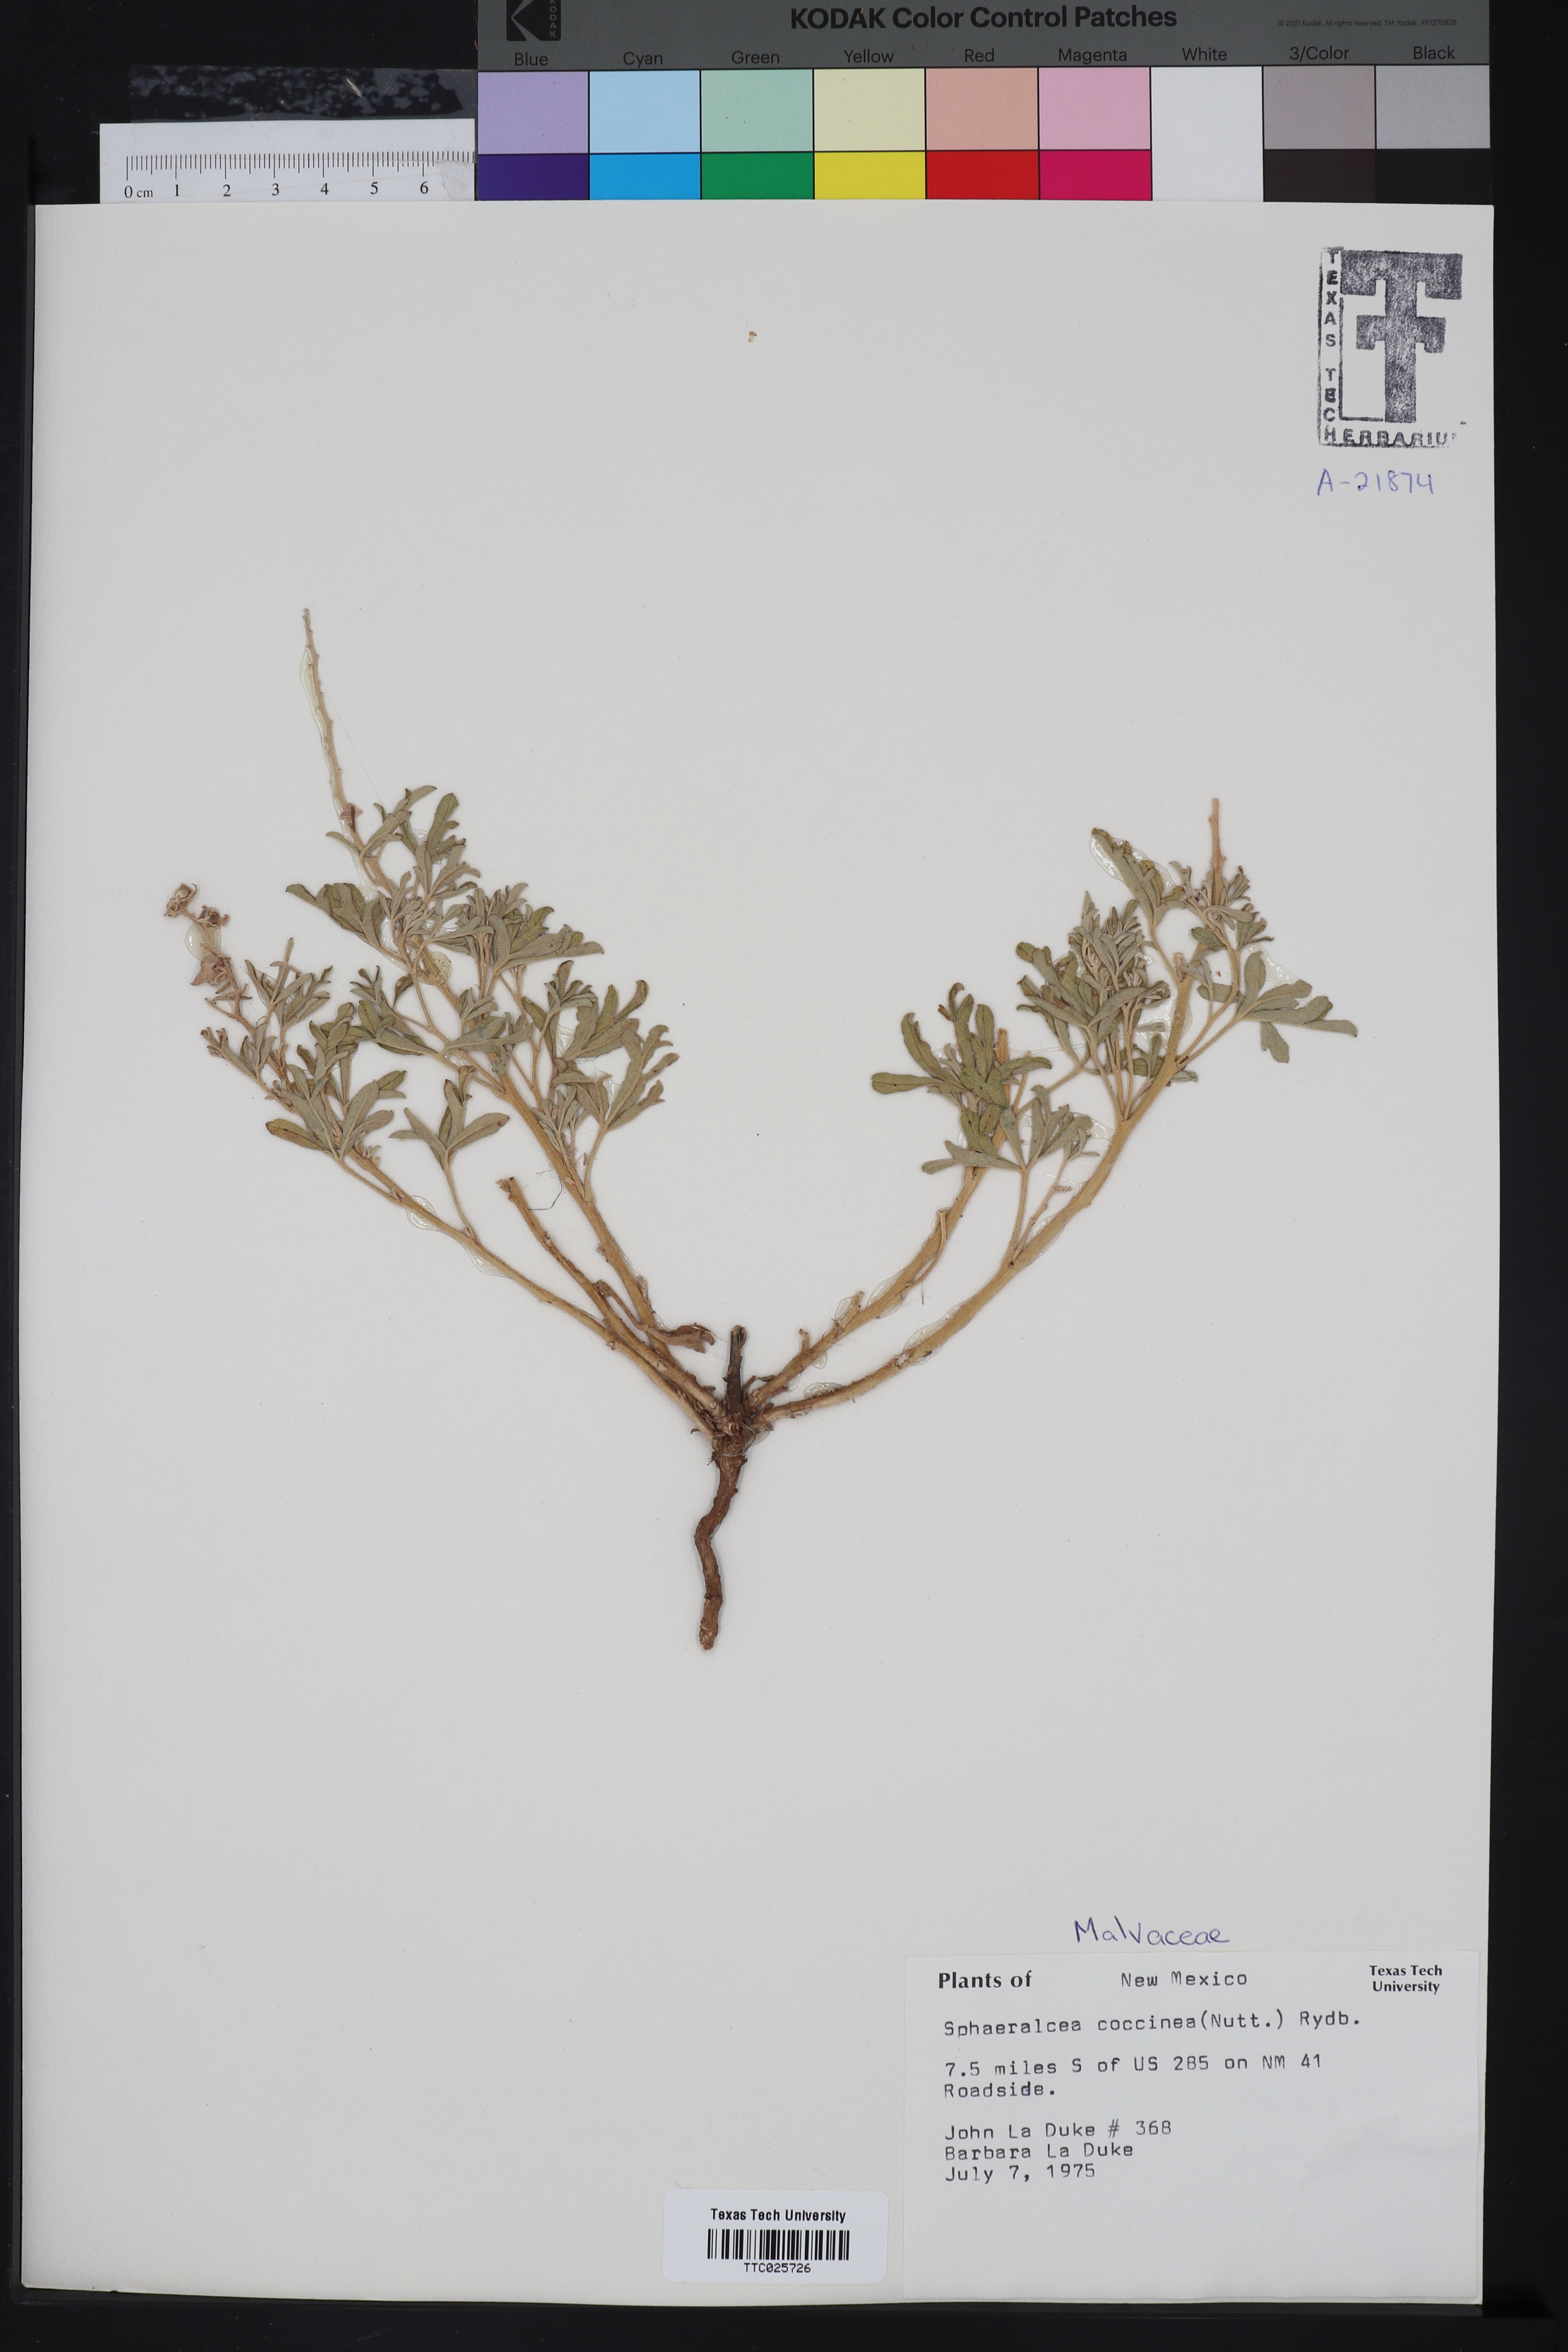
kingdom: Plantae
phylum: Tracheophyta
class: Magnoliopsida
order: Malvales
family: Malvaceae
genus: Sphaeralcea
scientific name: Sphaeralcea coccinea
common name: Moss-rose
